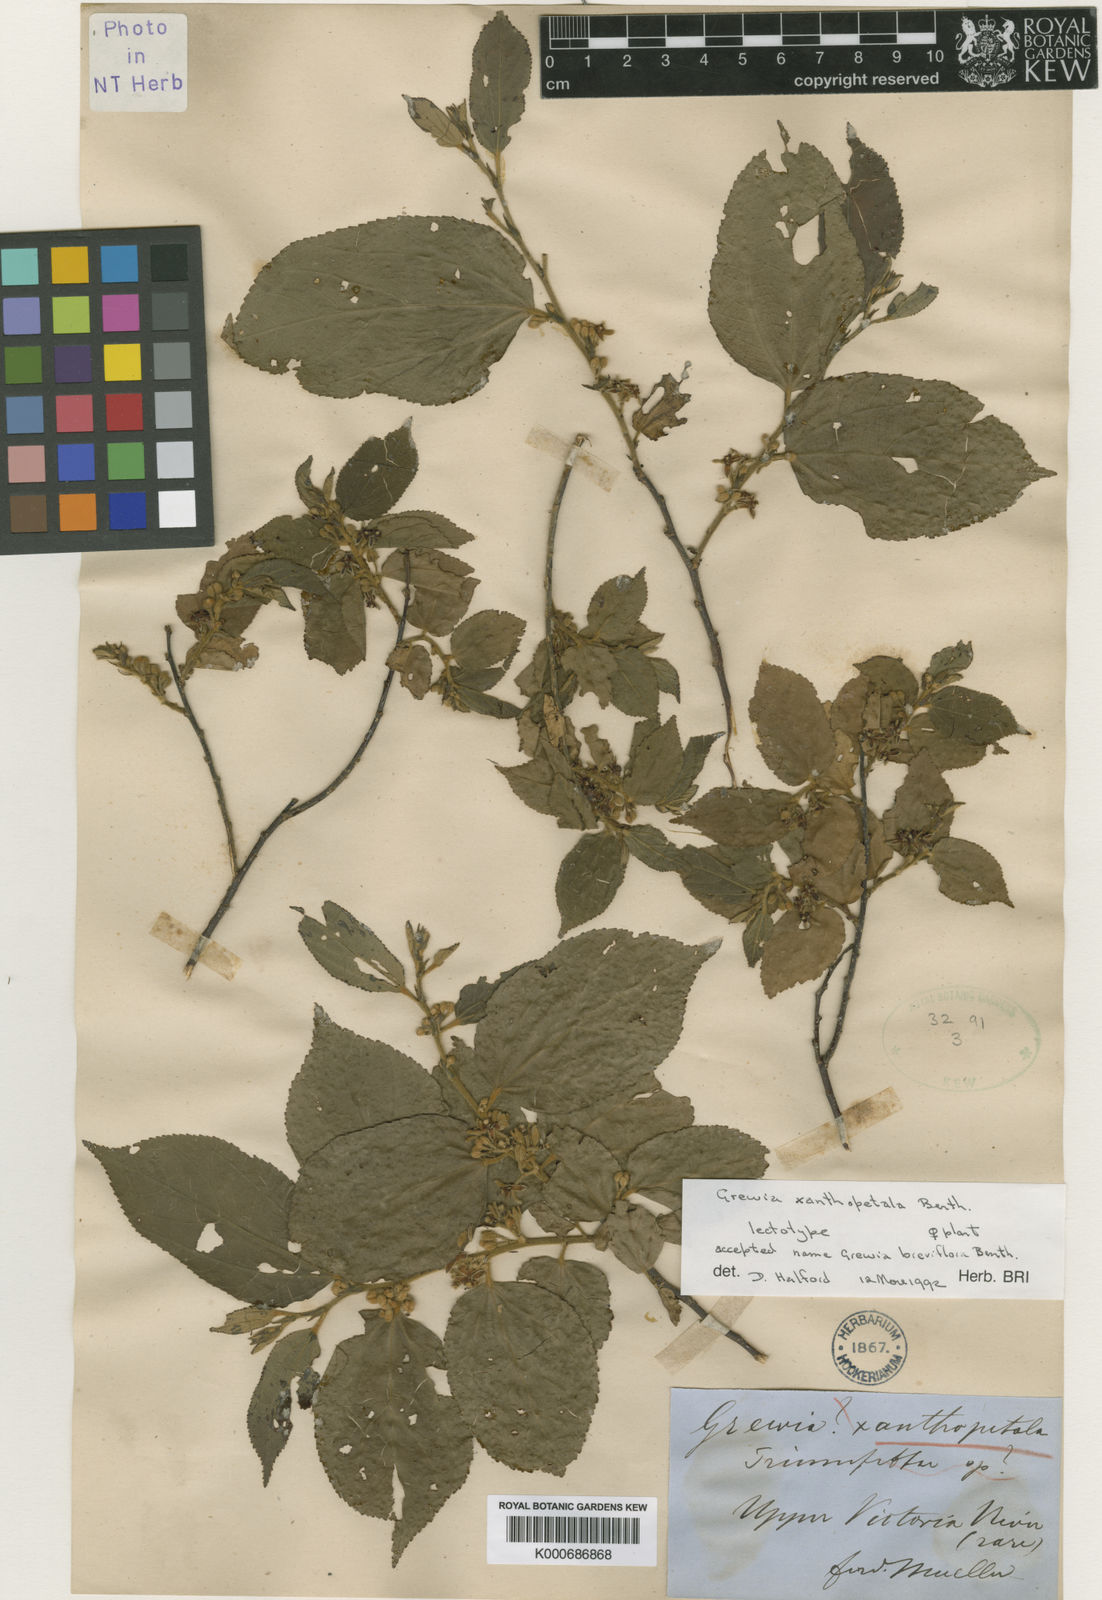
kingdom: Plantae
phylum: Tracheophyta
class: Magnoliopsida
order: Malvales
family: Malvaceae
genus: Grewia
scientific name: Grewia xanthopetala
